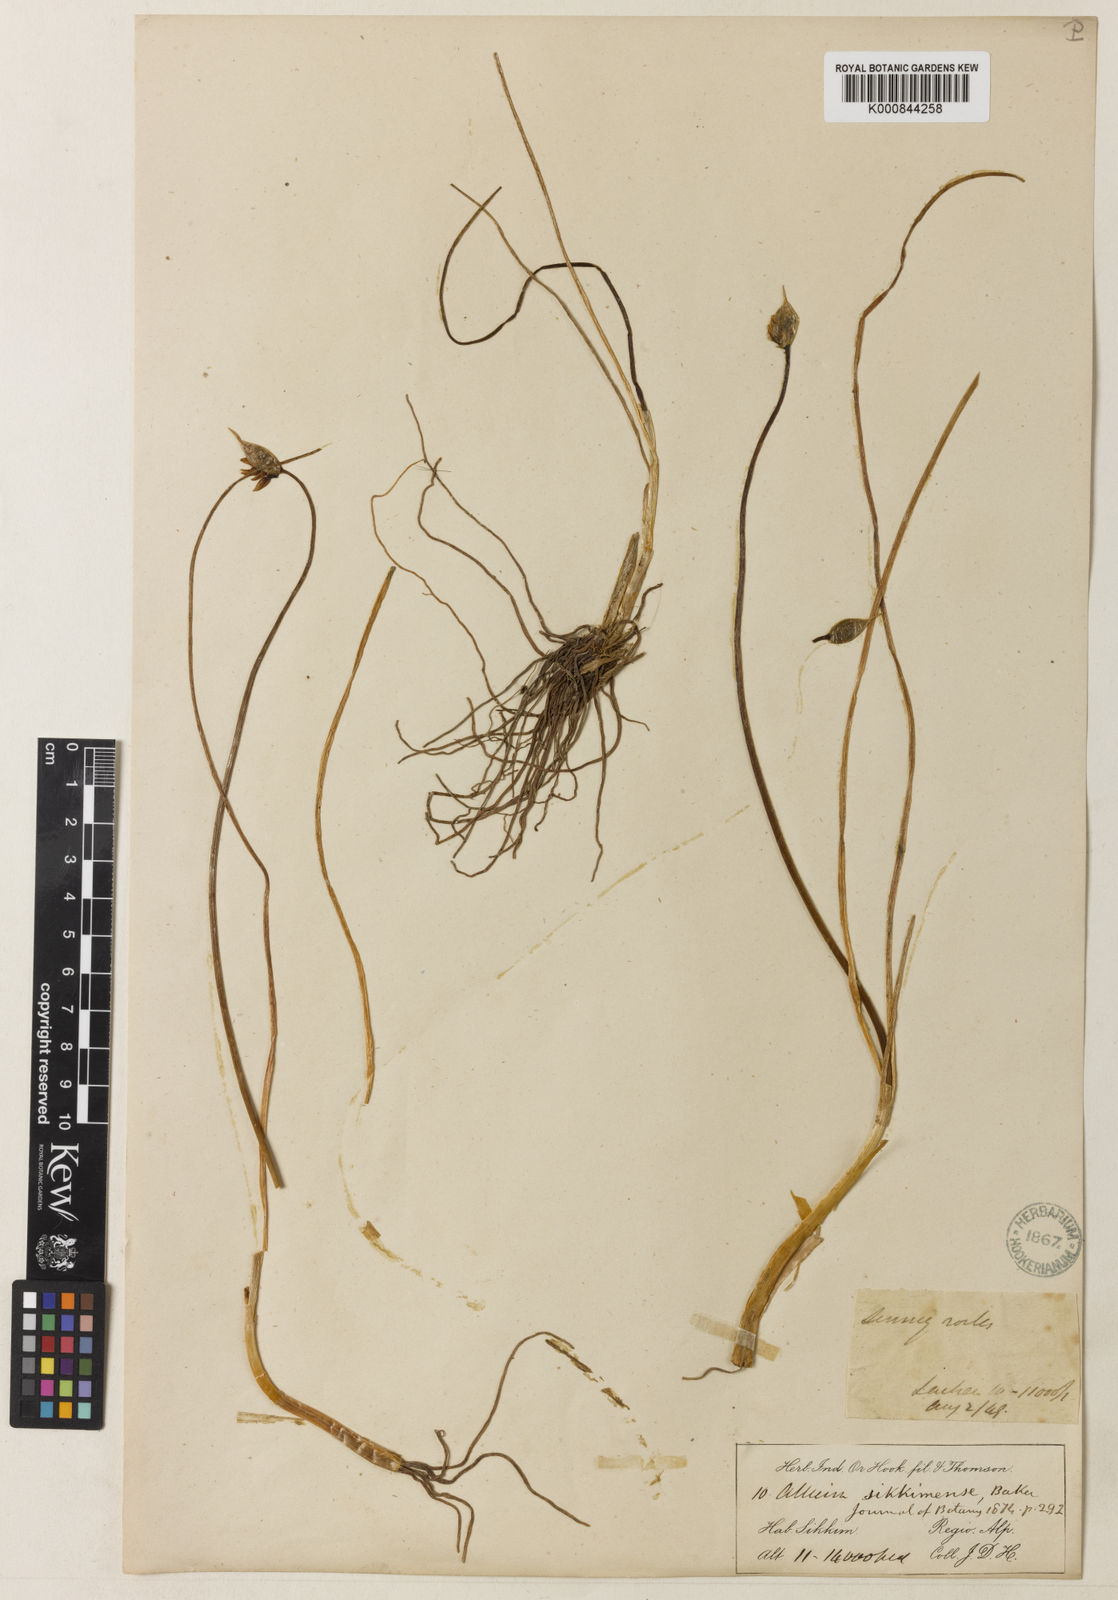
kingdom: Plantae
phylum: Tracheophyta
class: Liliopsida
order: Asparagales
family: Amaryllidaceae
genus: Allium
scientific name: Allium sikkimense
